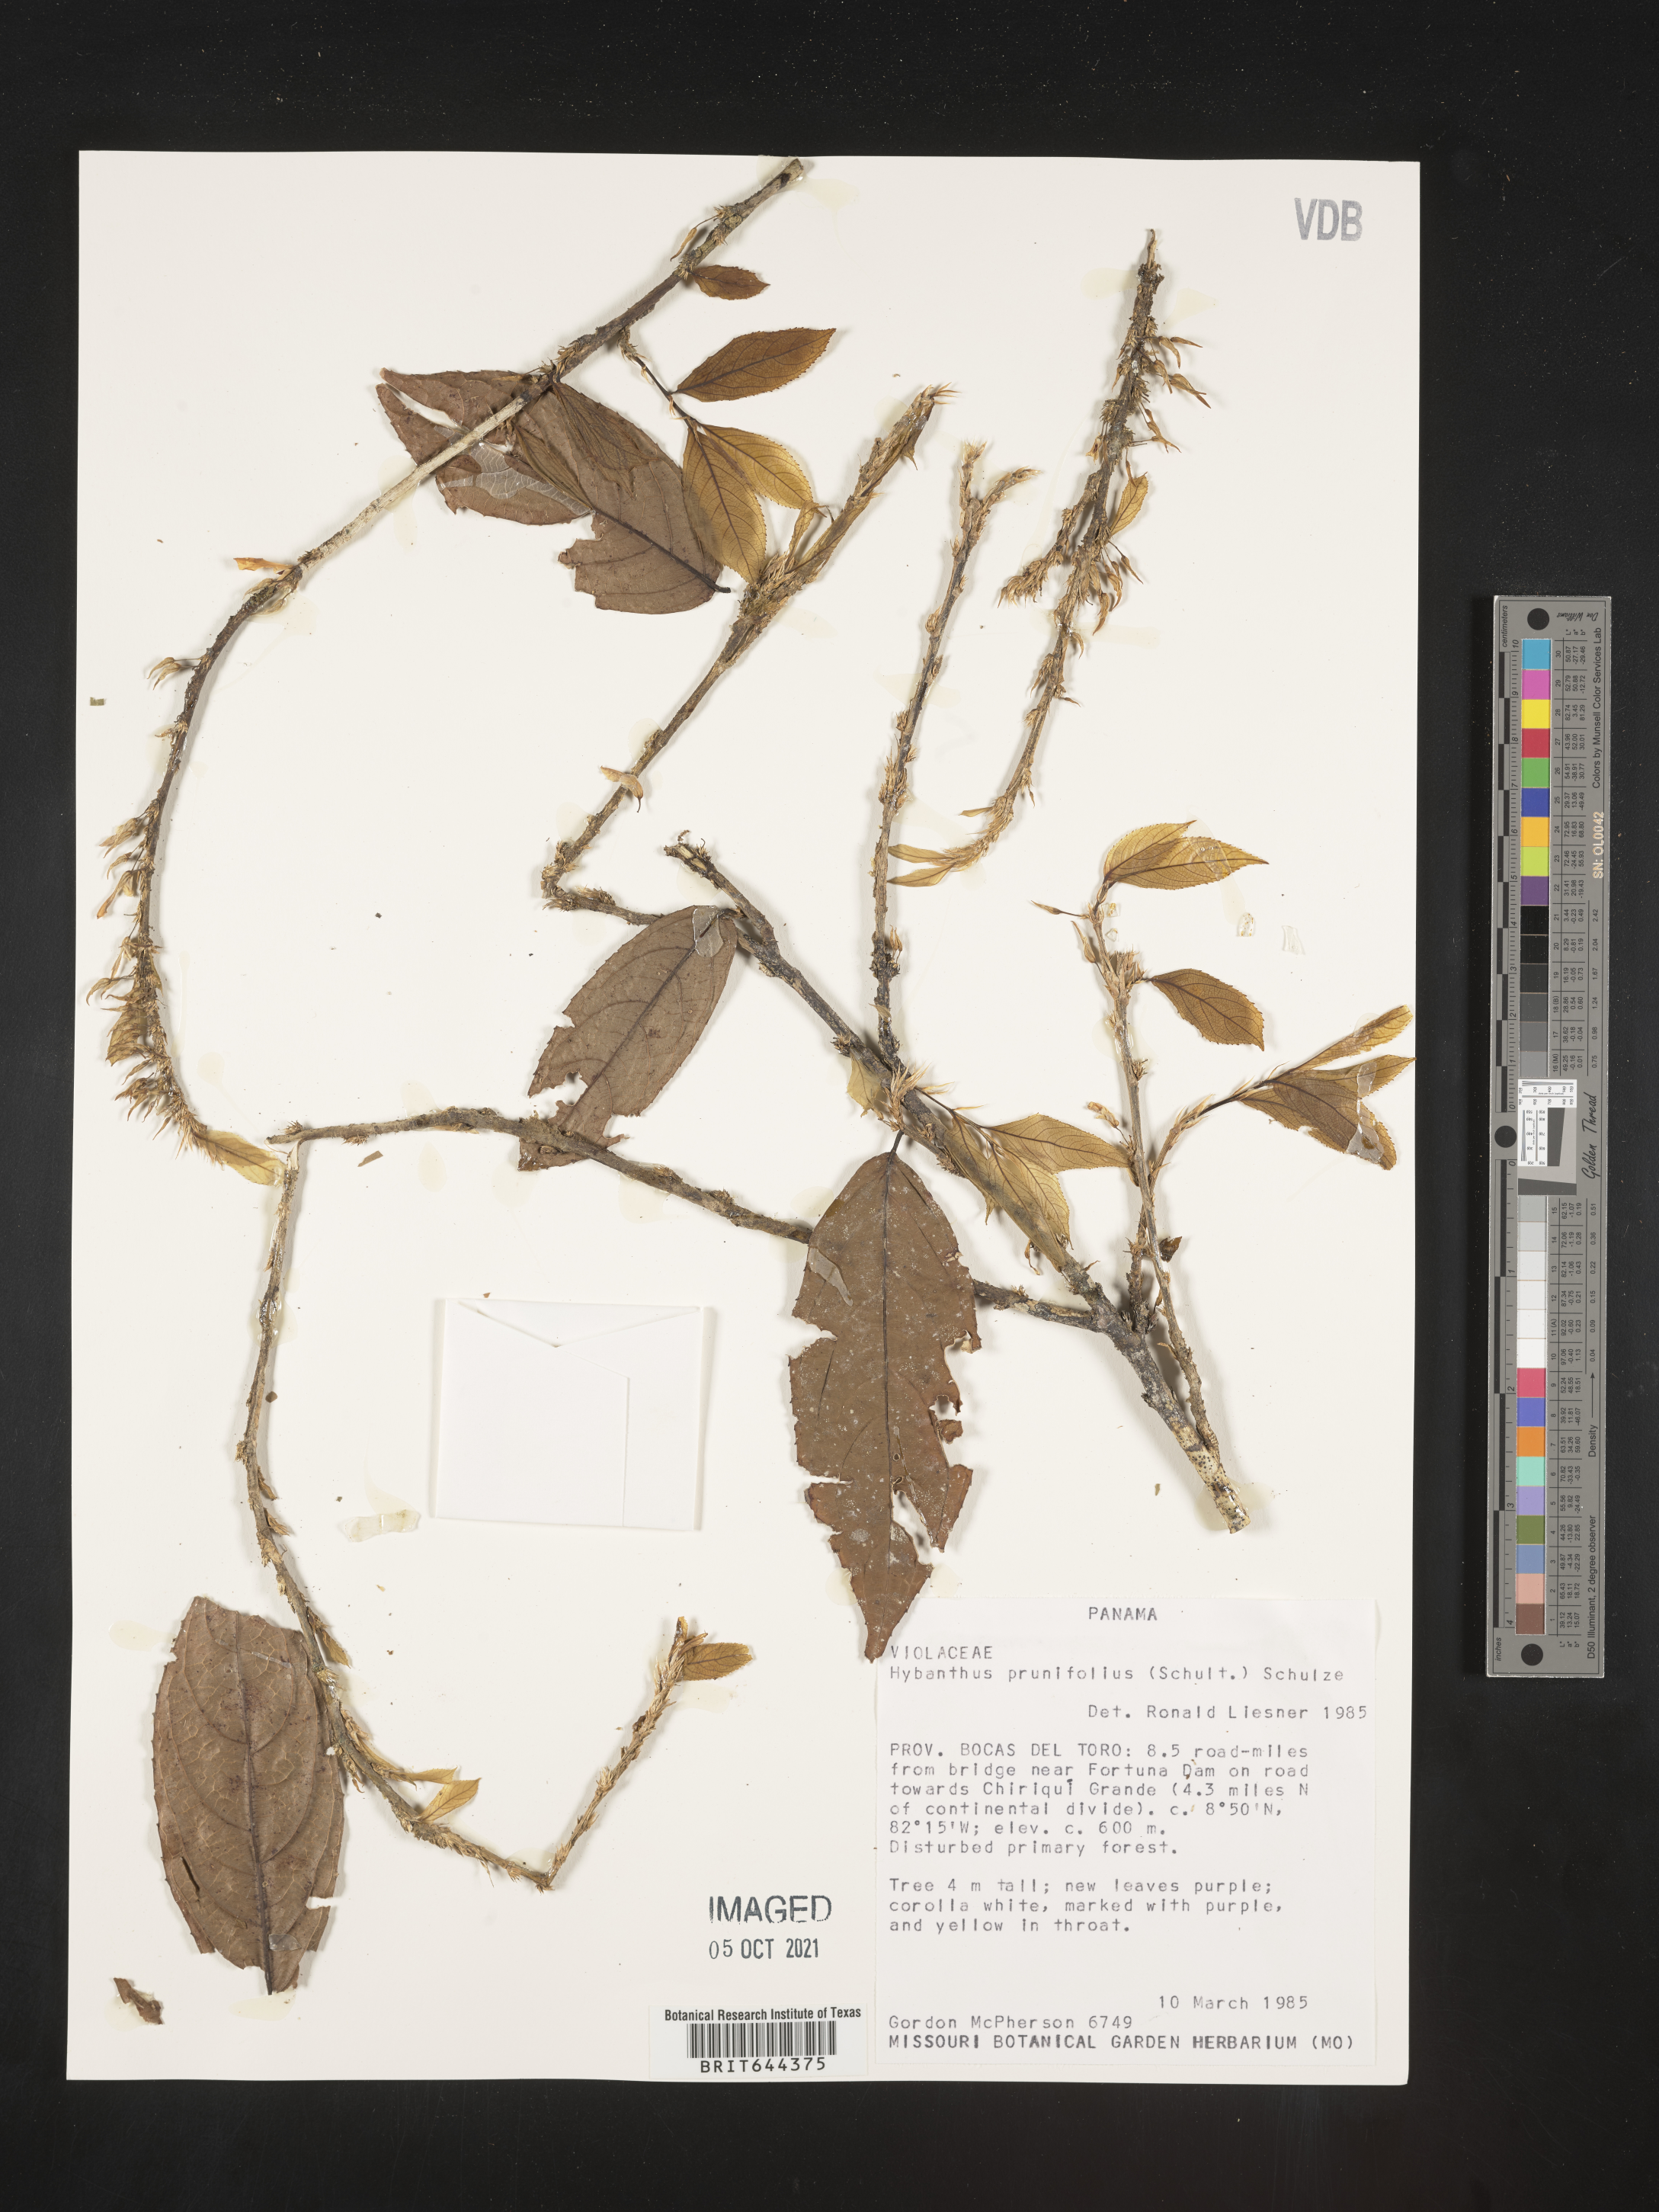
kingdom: Plantae
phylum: Tracheophyta
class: Magnoliopsida
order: Malpighiales
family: Violaceae
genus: Hybanthus
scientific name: Hybanthus
